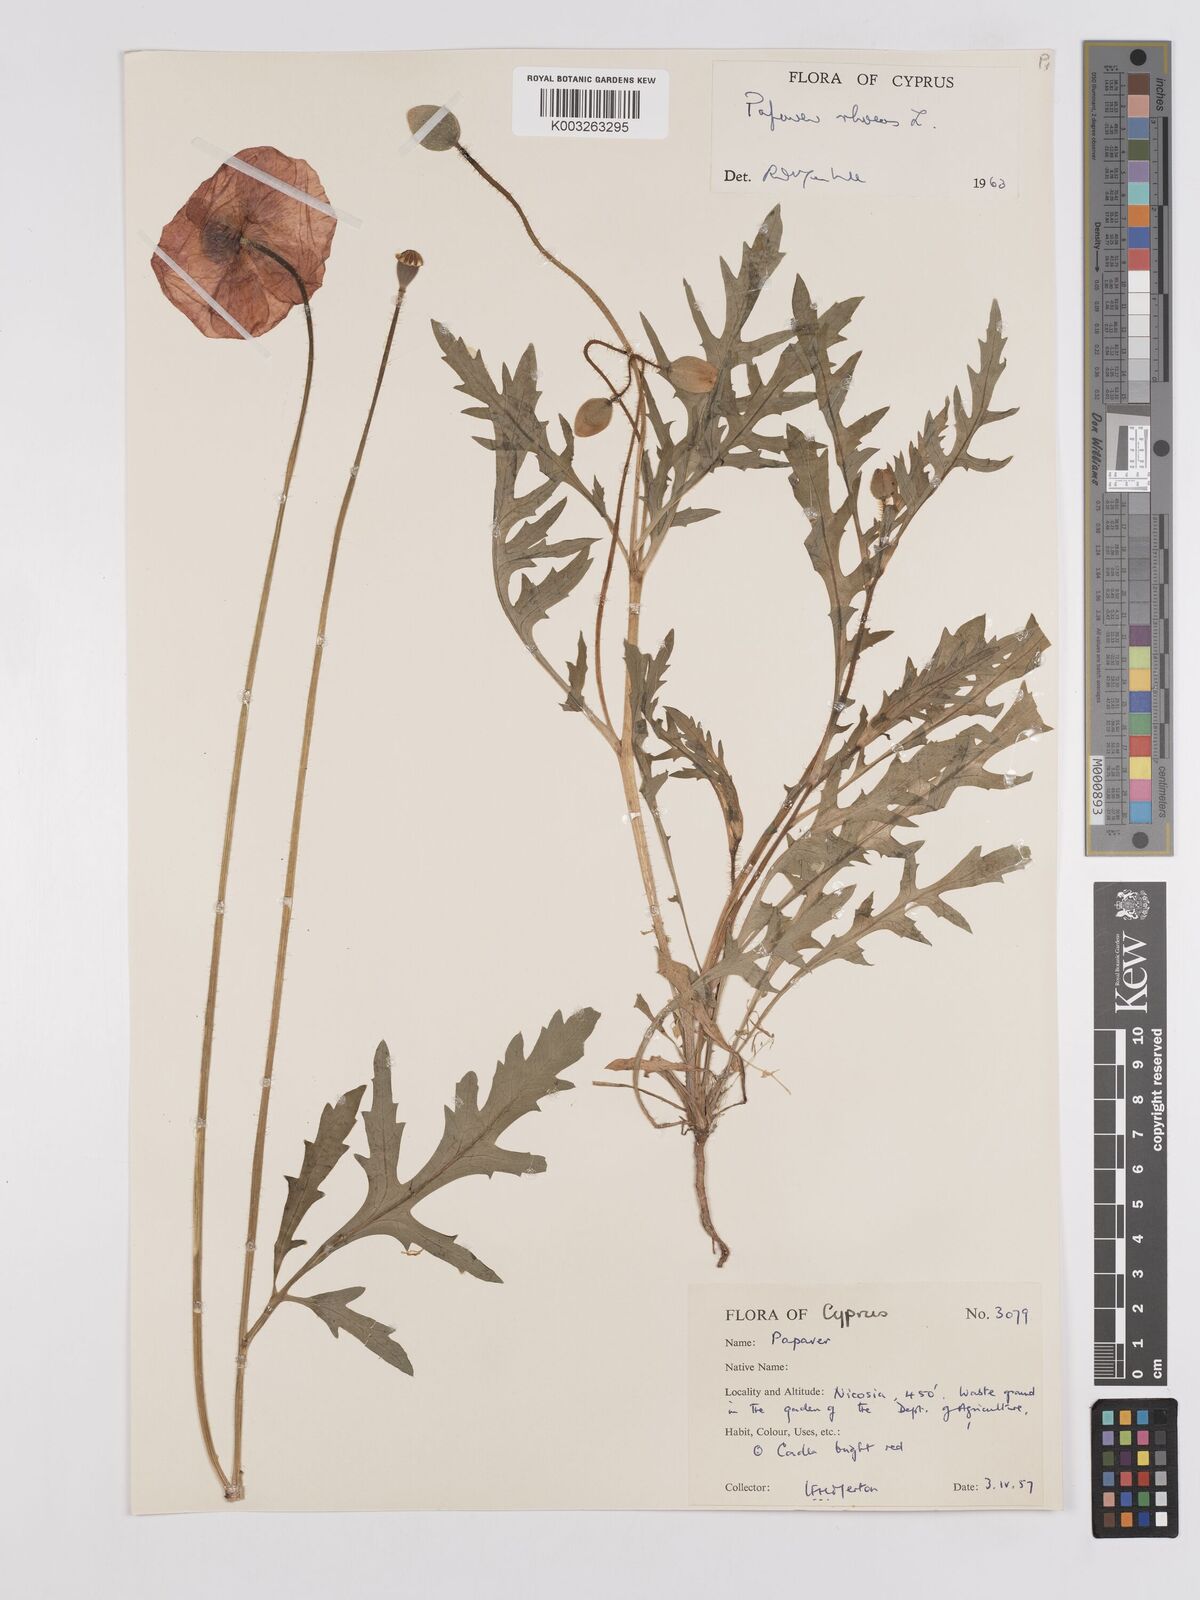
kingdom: Plantae
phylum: Tracheophyta
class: Magnoliopsida
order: Ranunculales
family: Papaveraceae
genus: Papaver
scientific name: Papaver rhoeas
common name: Corn poppy
